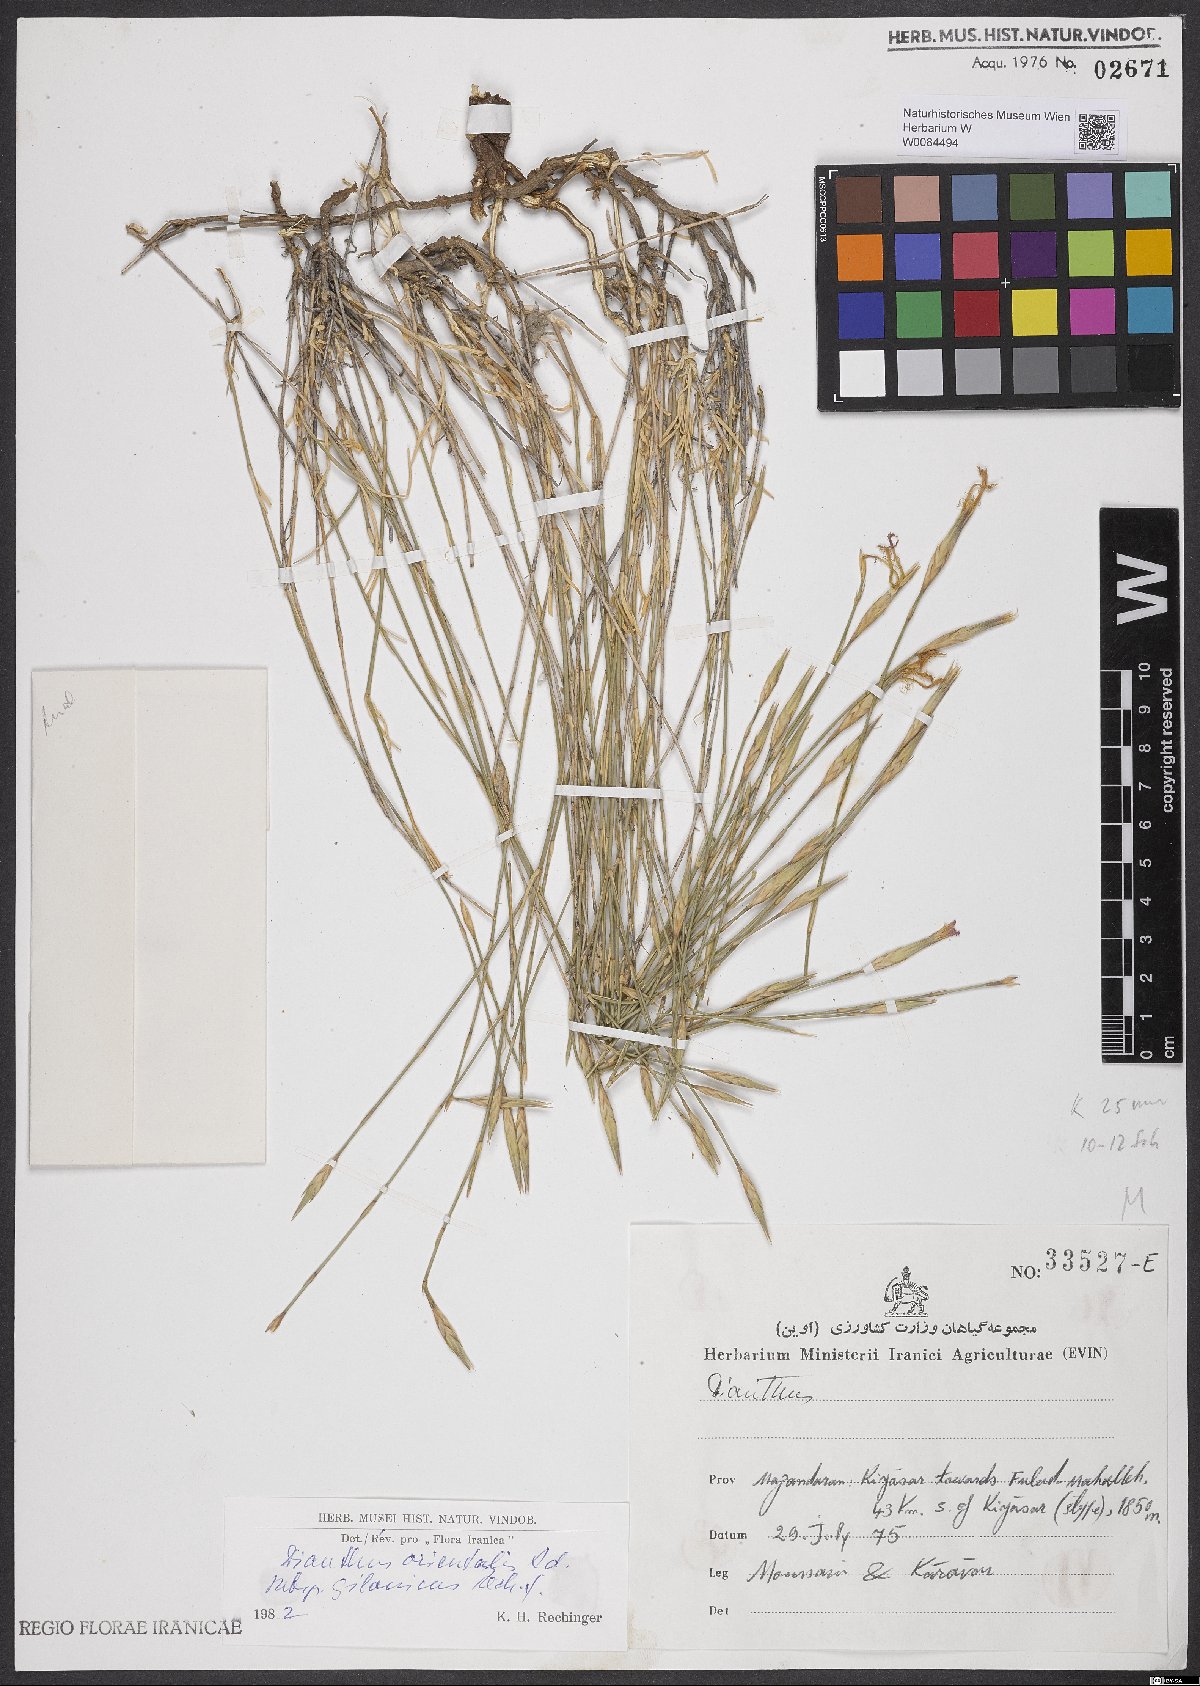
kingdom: Plantae
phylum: Tracheophyta
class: Magnoliopsida
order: Caryophyllales
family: Caryophyllaceae
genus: Dianthus
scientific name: Dianthus orientalis
